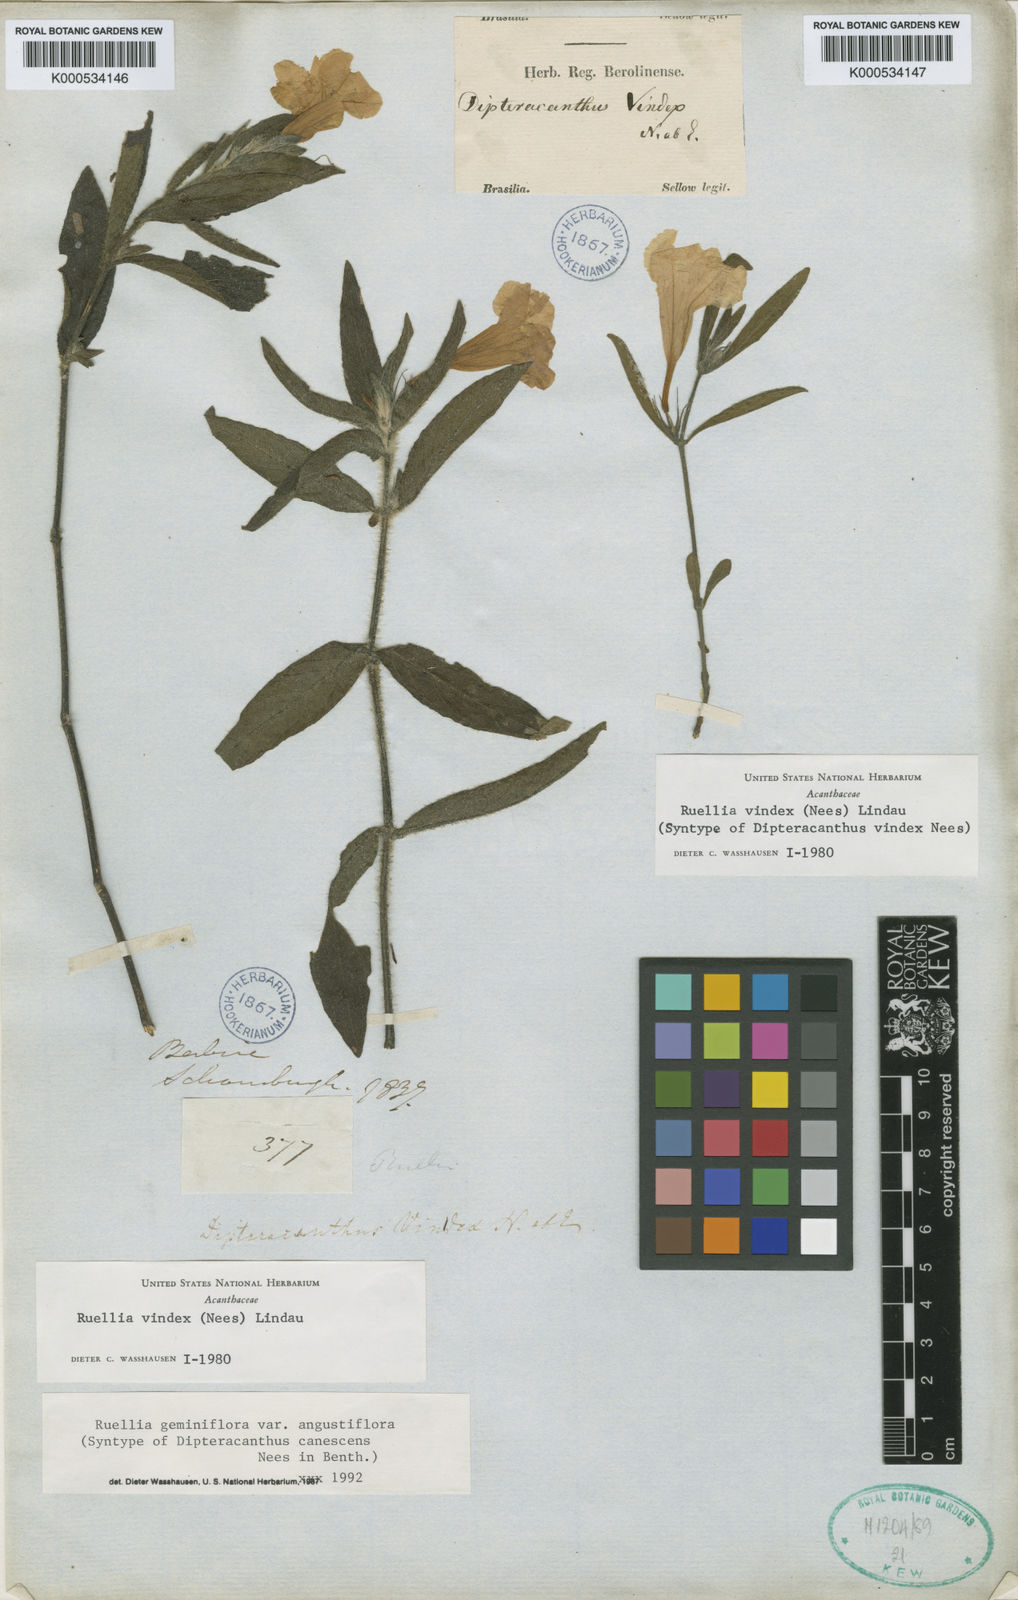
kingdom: Plantae
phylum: Tracheophyta
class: Magnoliopsida
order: Lamiales
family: Acanthaceae
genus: Ruellia
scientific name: Ruellia geminiflora
